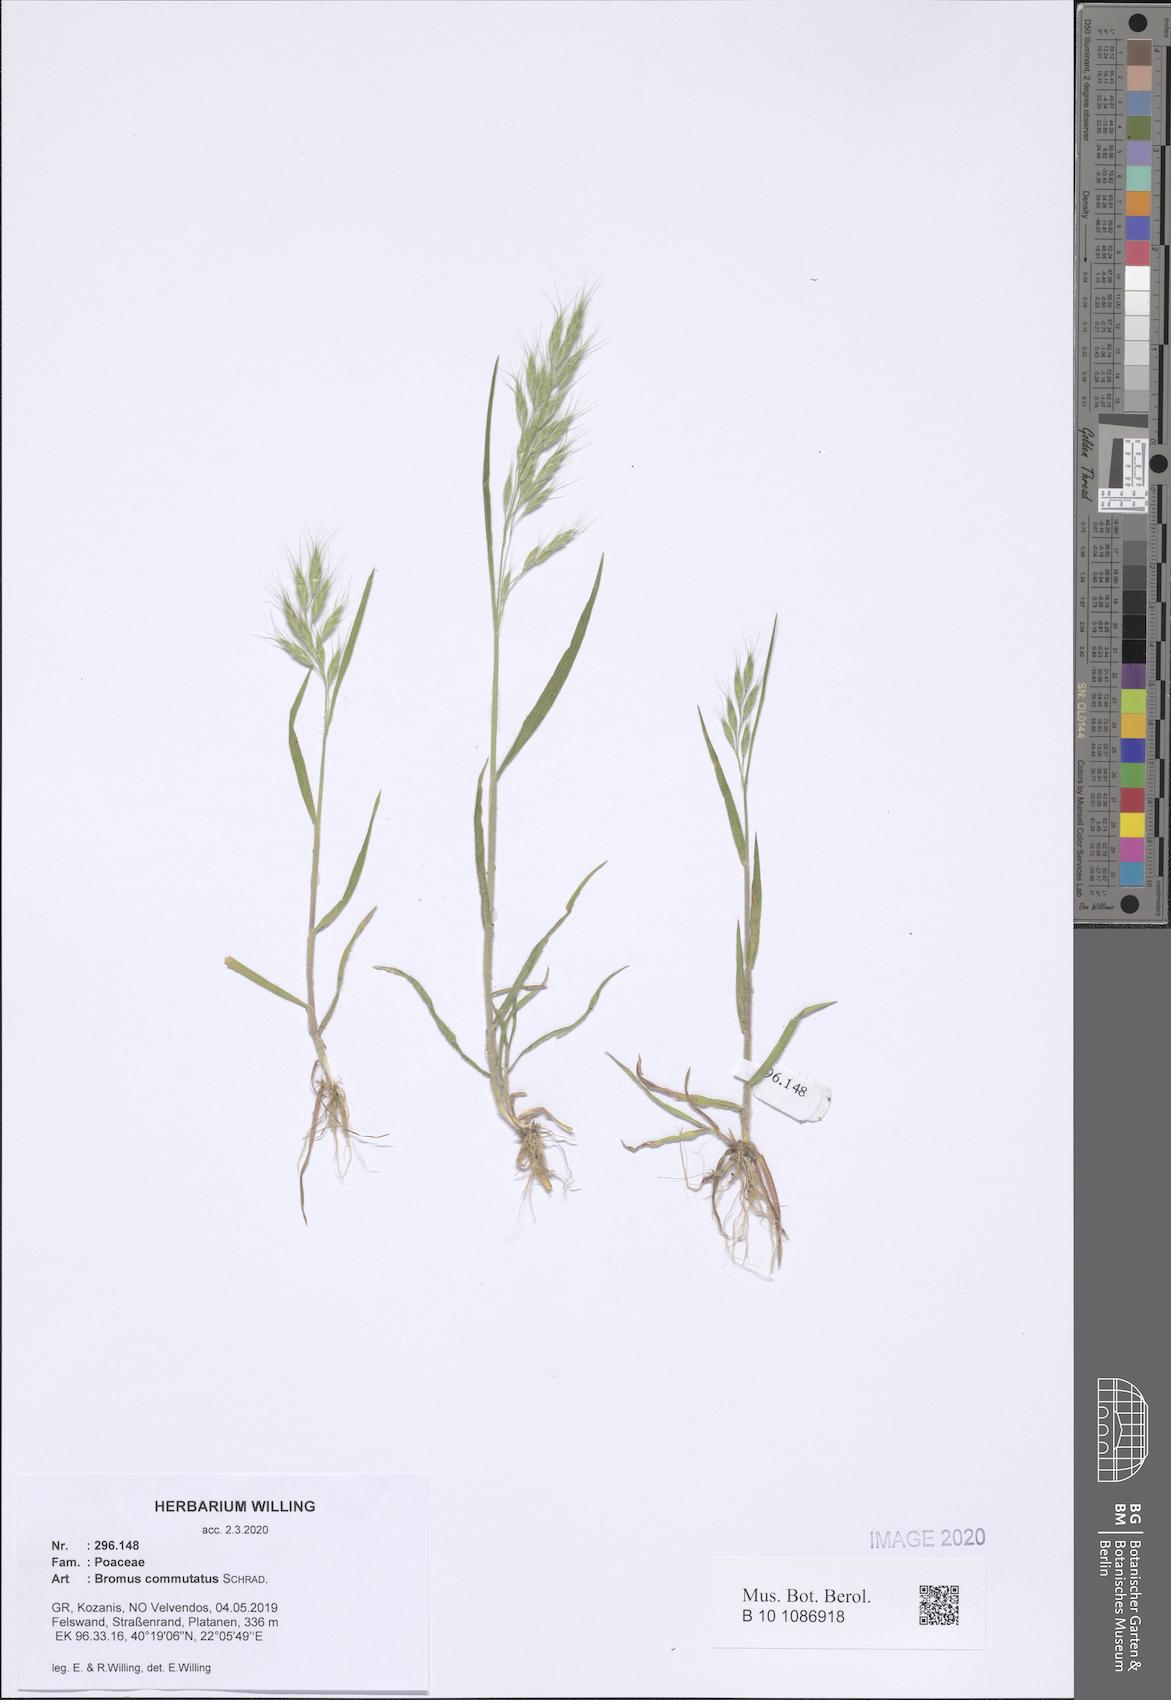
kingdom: Plantae
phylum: Tracheophyta
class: Liliopsida
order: Poales
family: Poaceae
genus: Bromus
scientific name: Bromus commutatus
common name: Meadow brome
